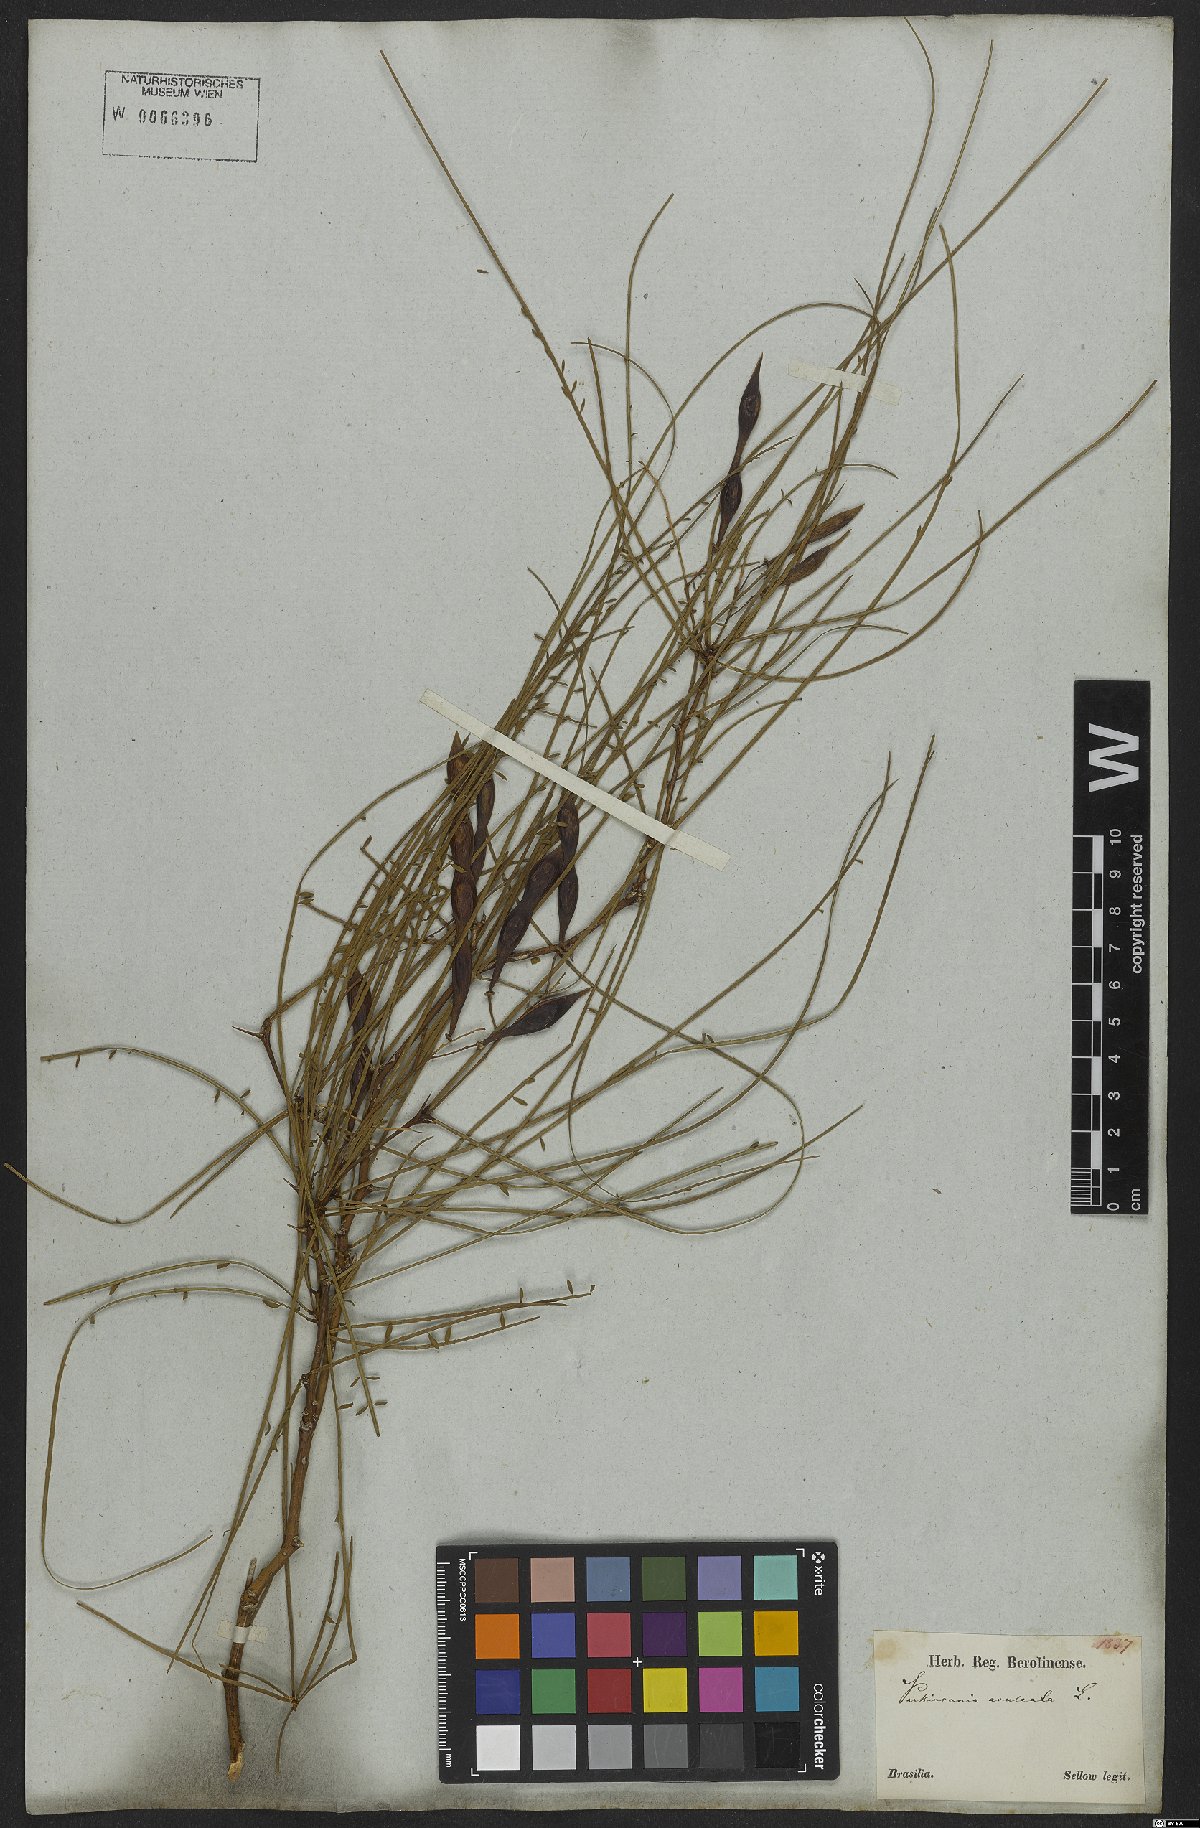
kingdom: Plantae
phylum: Tracheophyta
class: Magnoliopsida
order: Fabales
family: Fabaceae
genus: Parkinsonia
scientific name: Parkinsonia aculeata
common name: Jerusalem thorn
